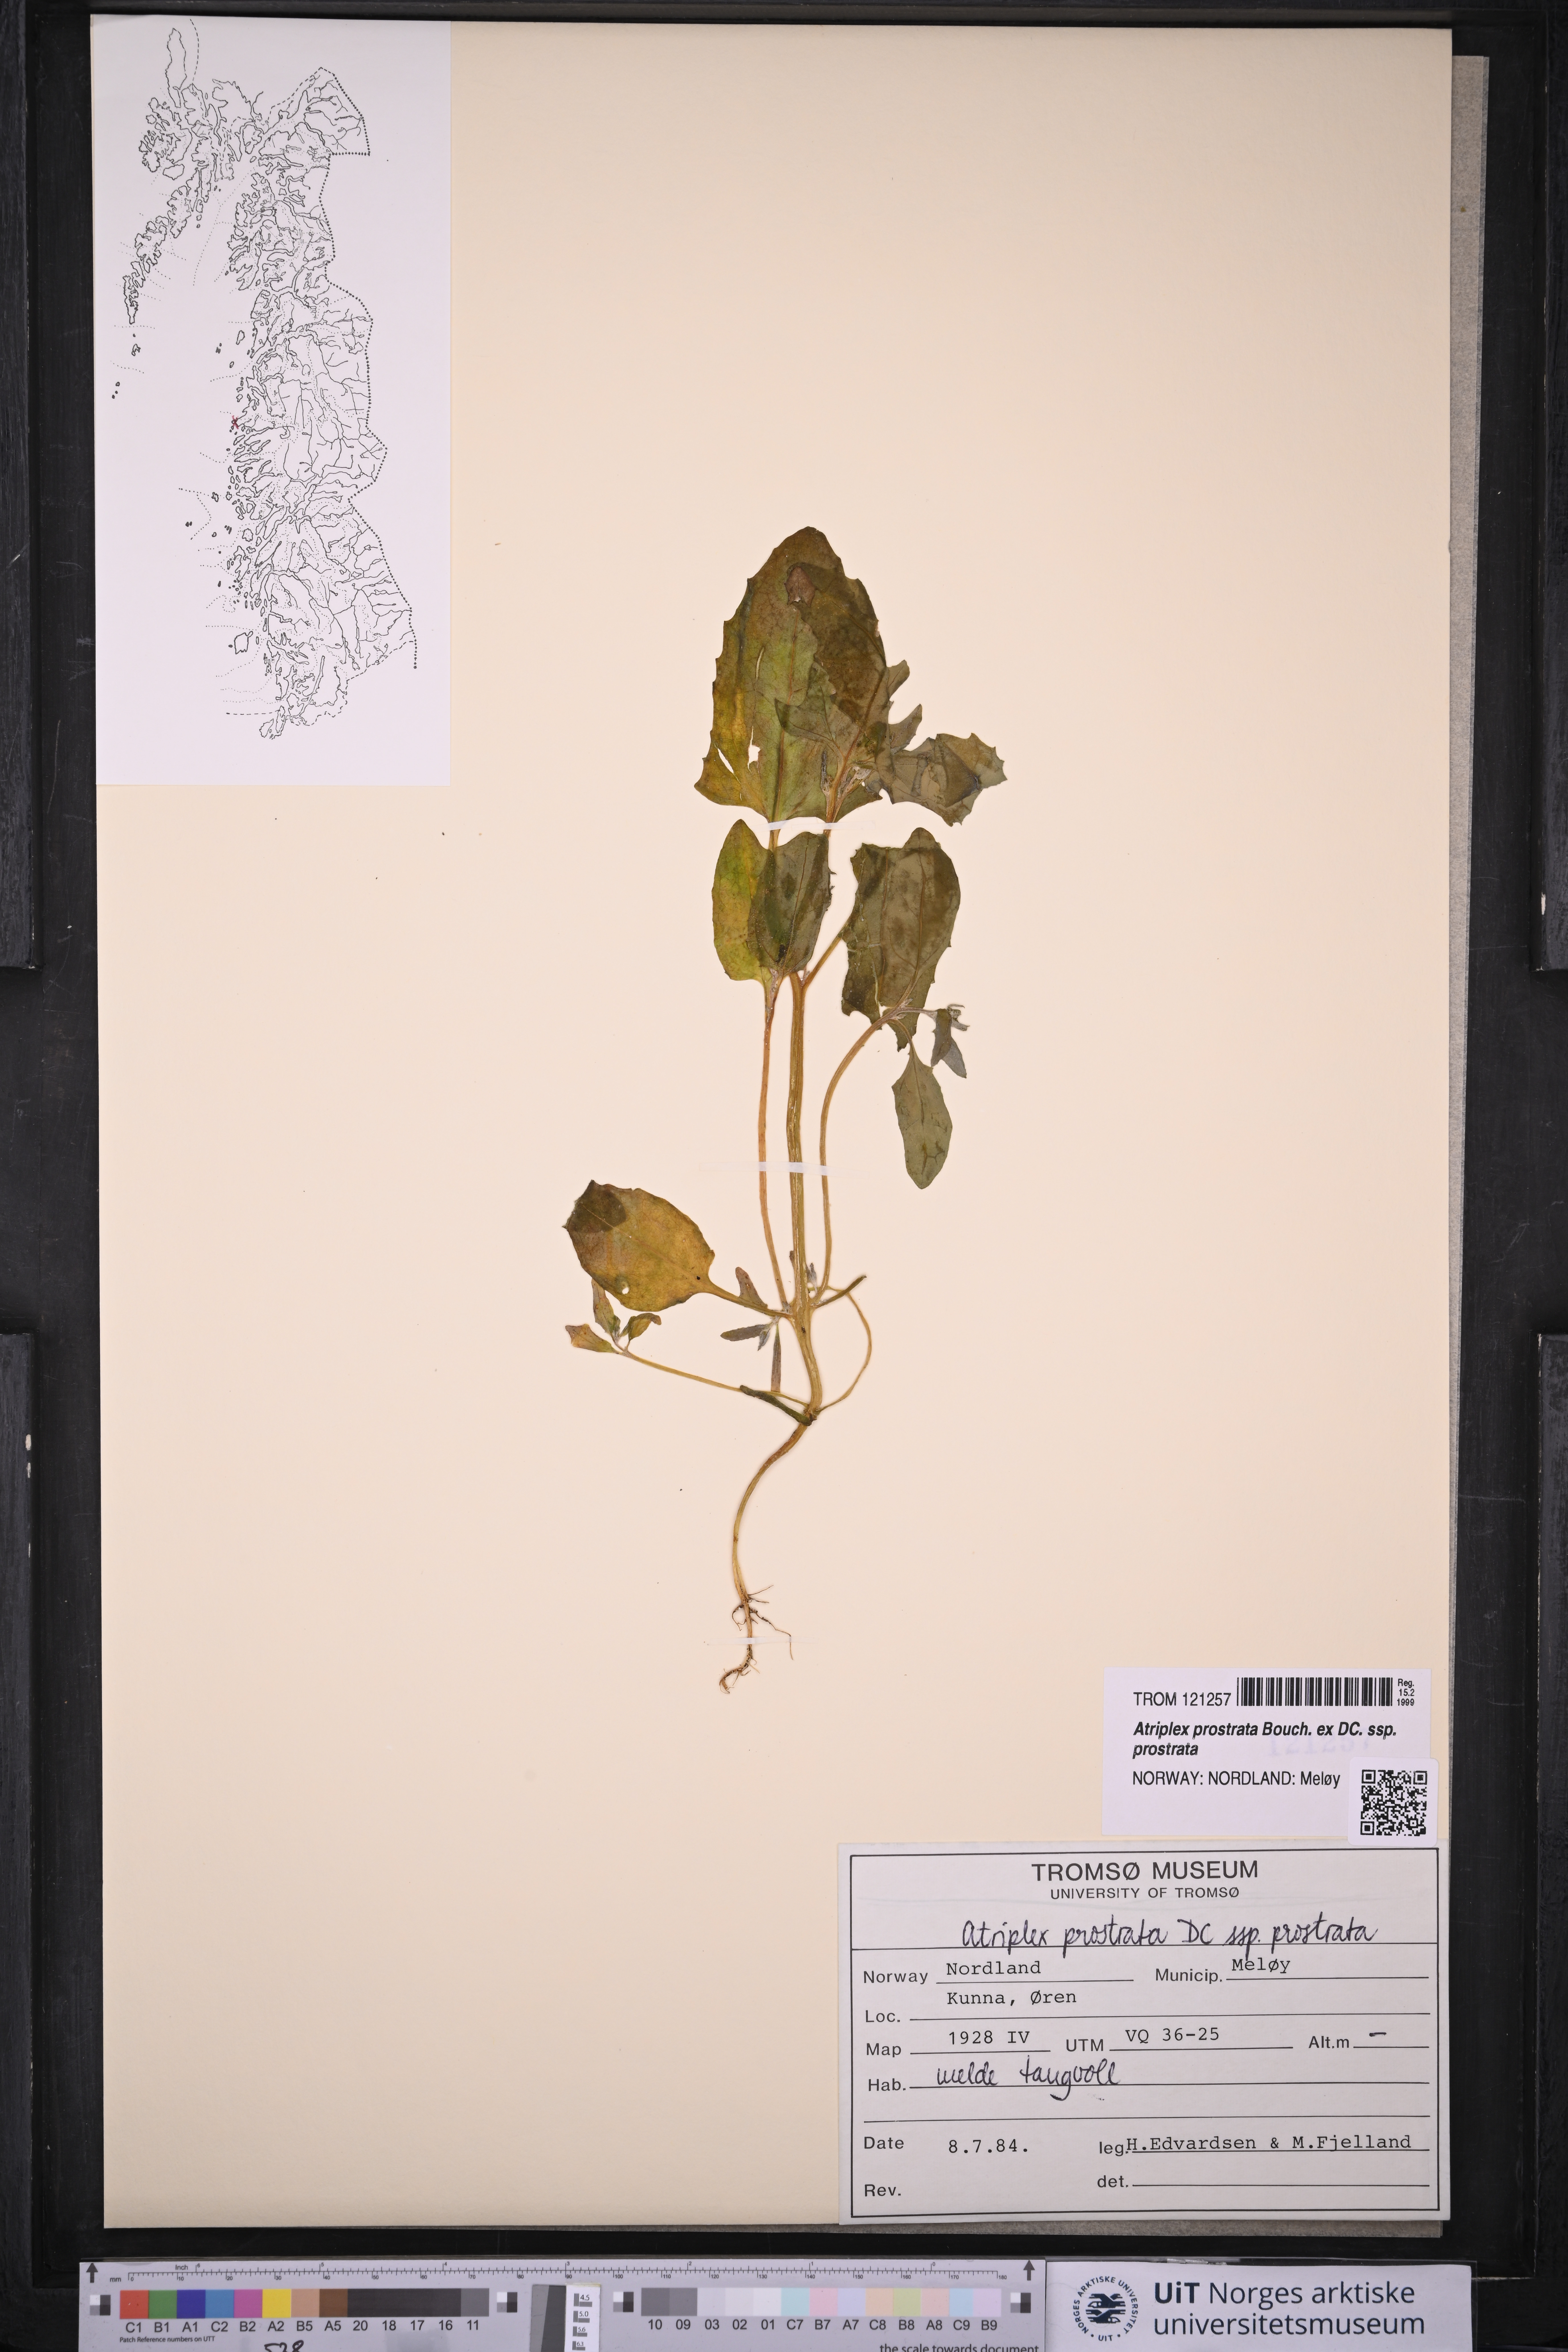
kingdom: Plantae
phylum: Tracheophyta
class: Magnoliopsida
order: Caryophyllales
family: Amaranthaceae
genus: Atriplex
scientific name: Atriplex prostrata
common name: Spear-leaved orache
